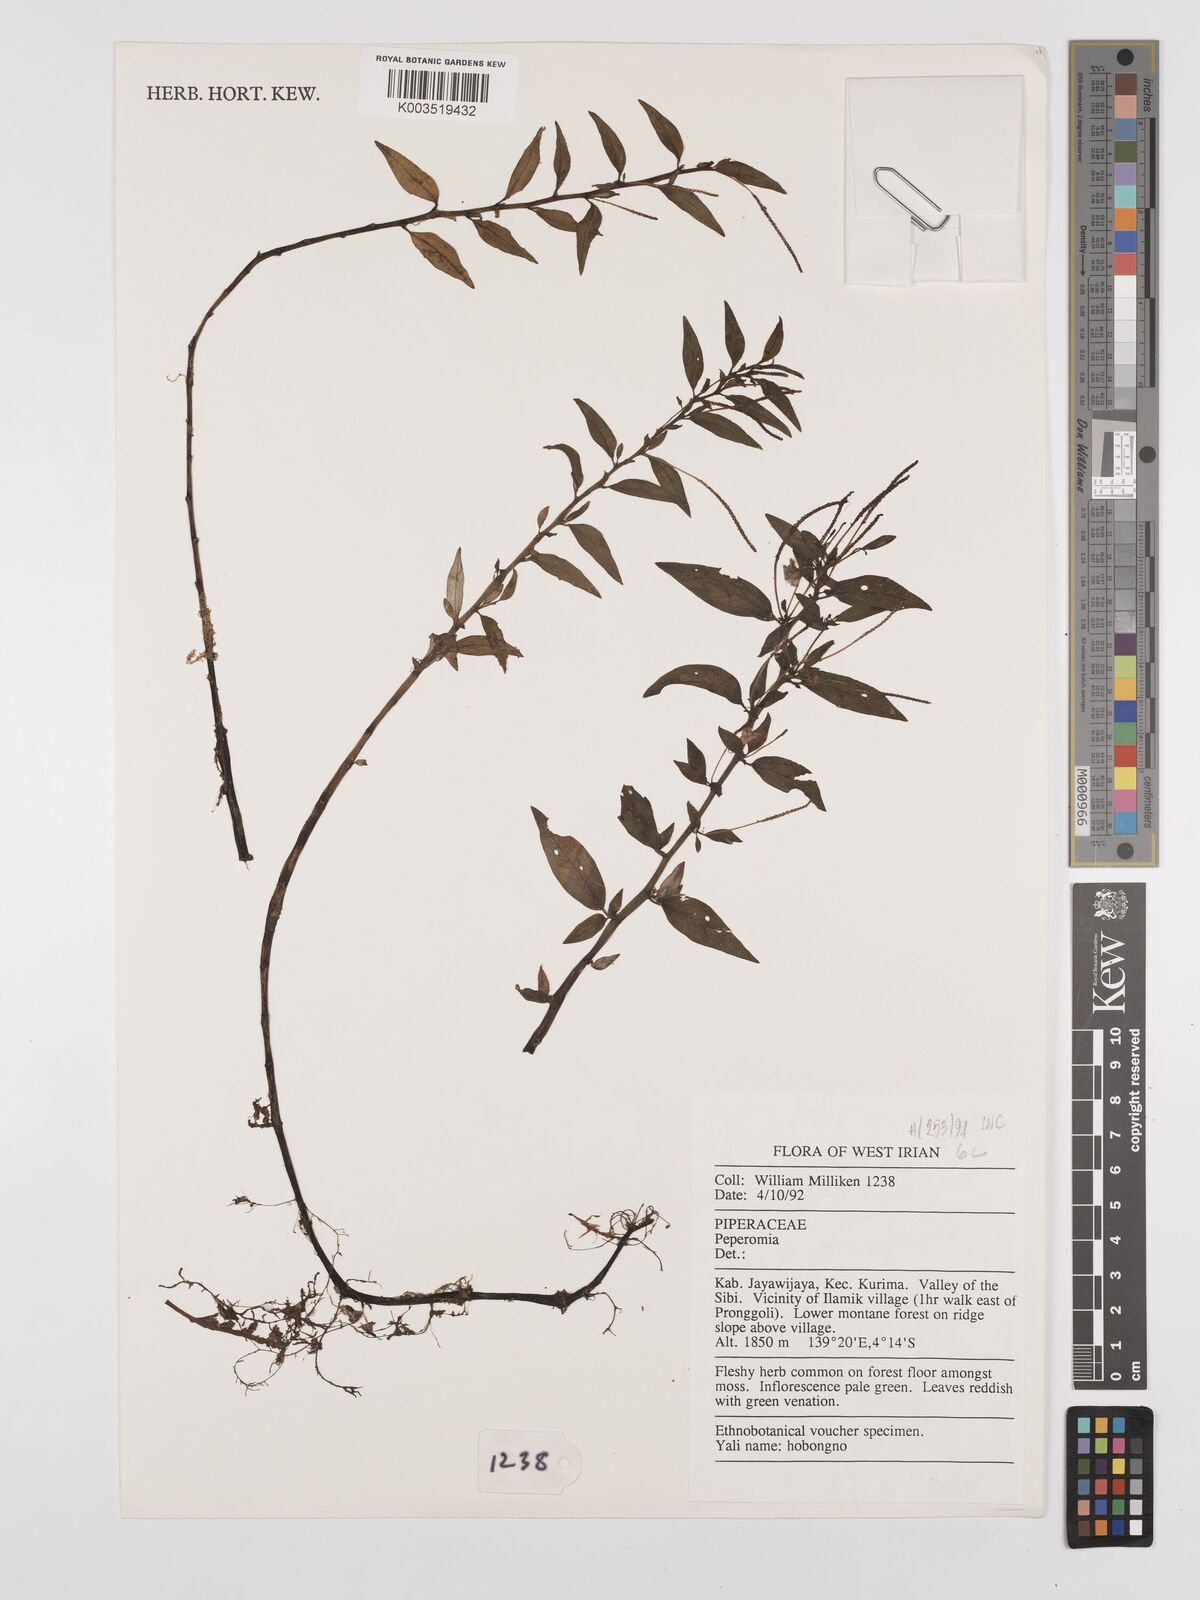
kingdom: Plantae
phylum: Tracheophyta
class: Magnoliopsida
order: Piperales
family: Piperaceae
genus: Peperomia
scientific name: Peperomia
